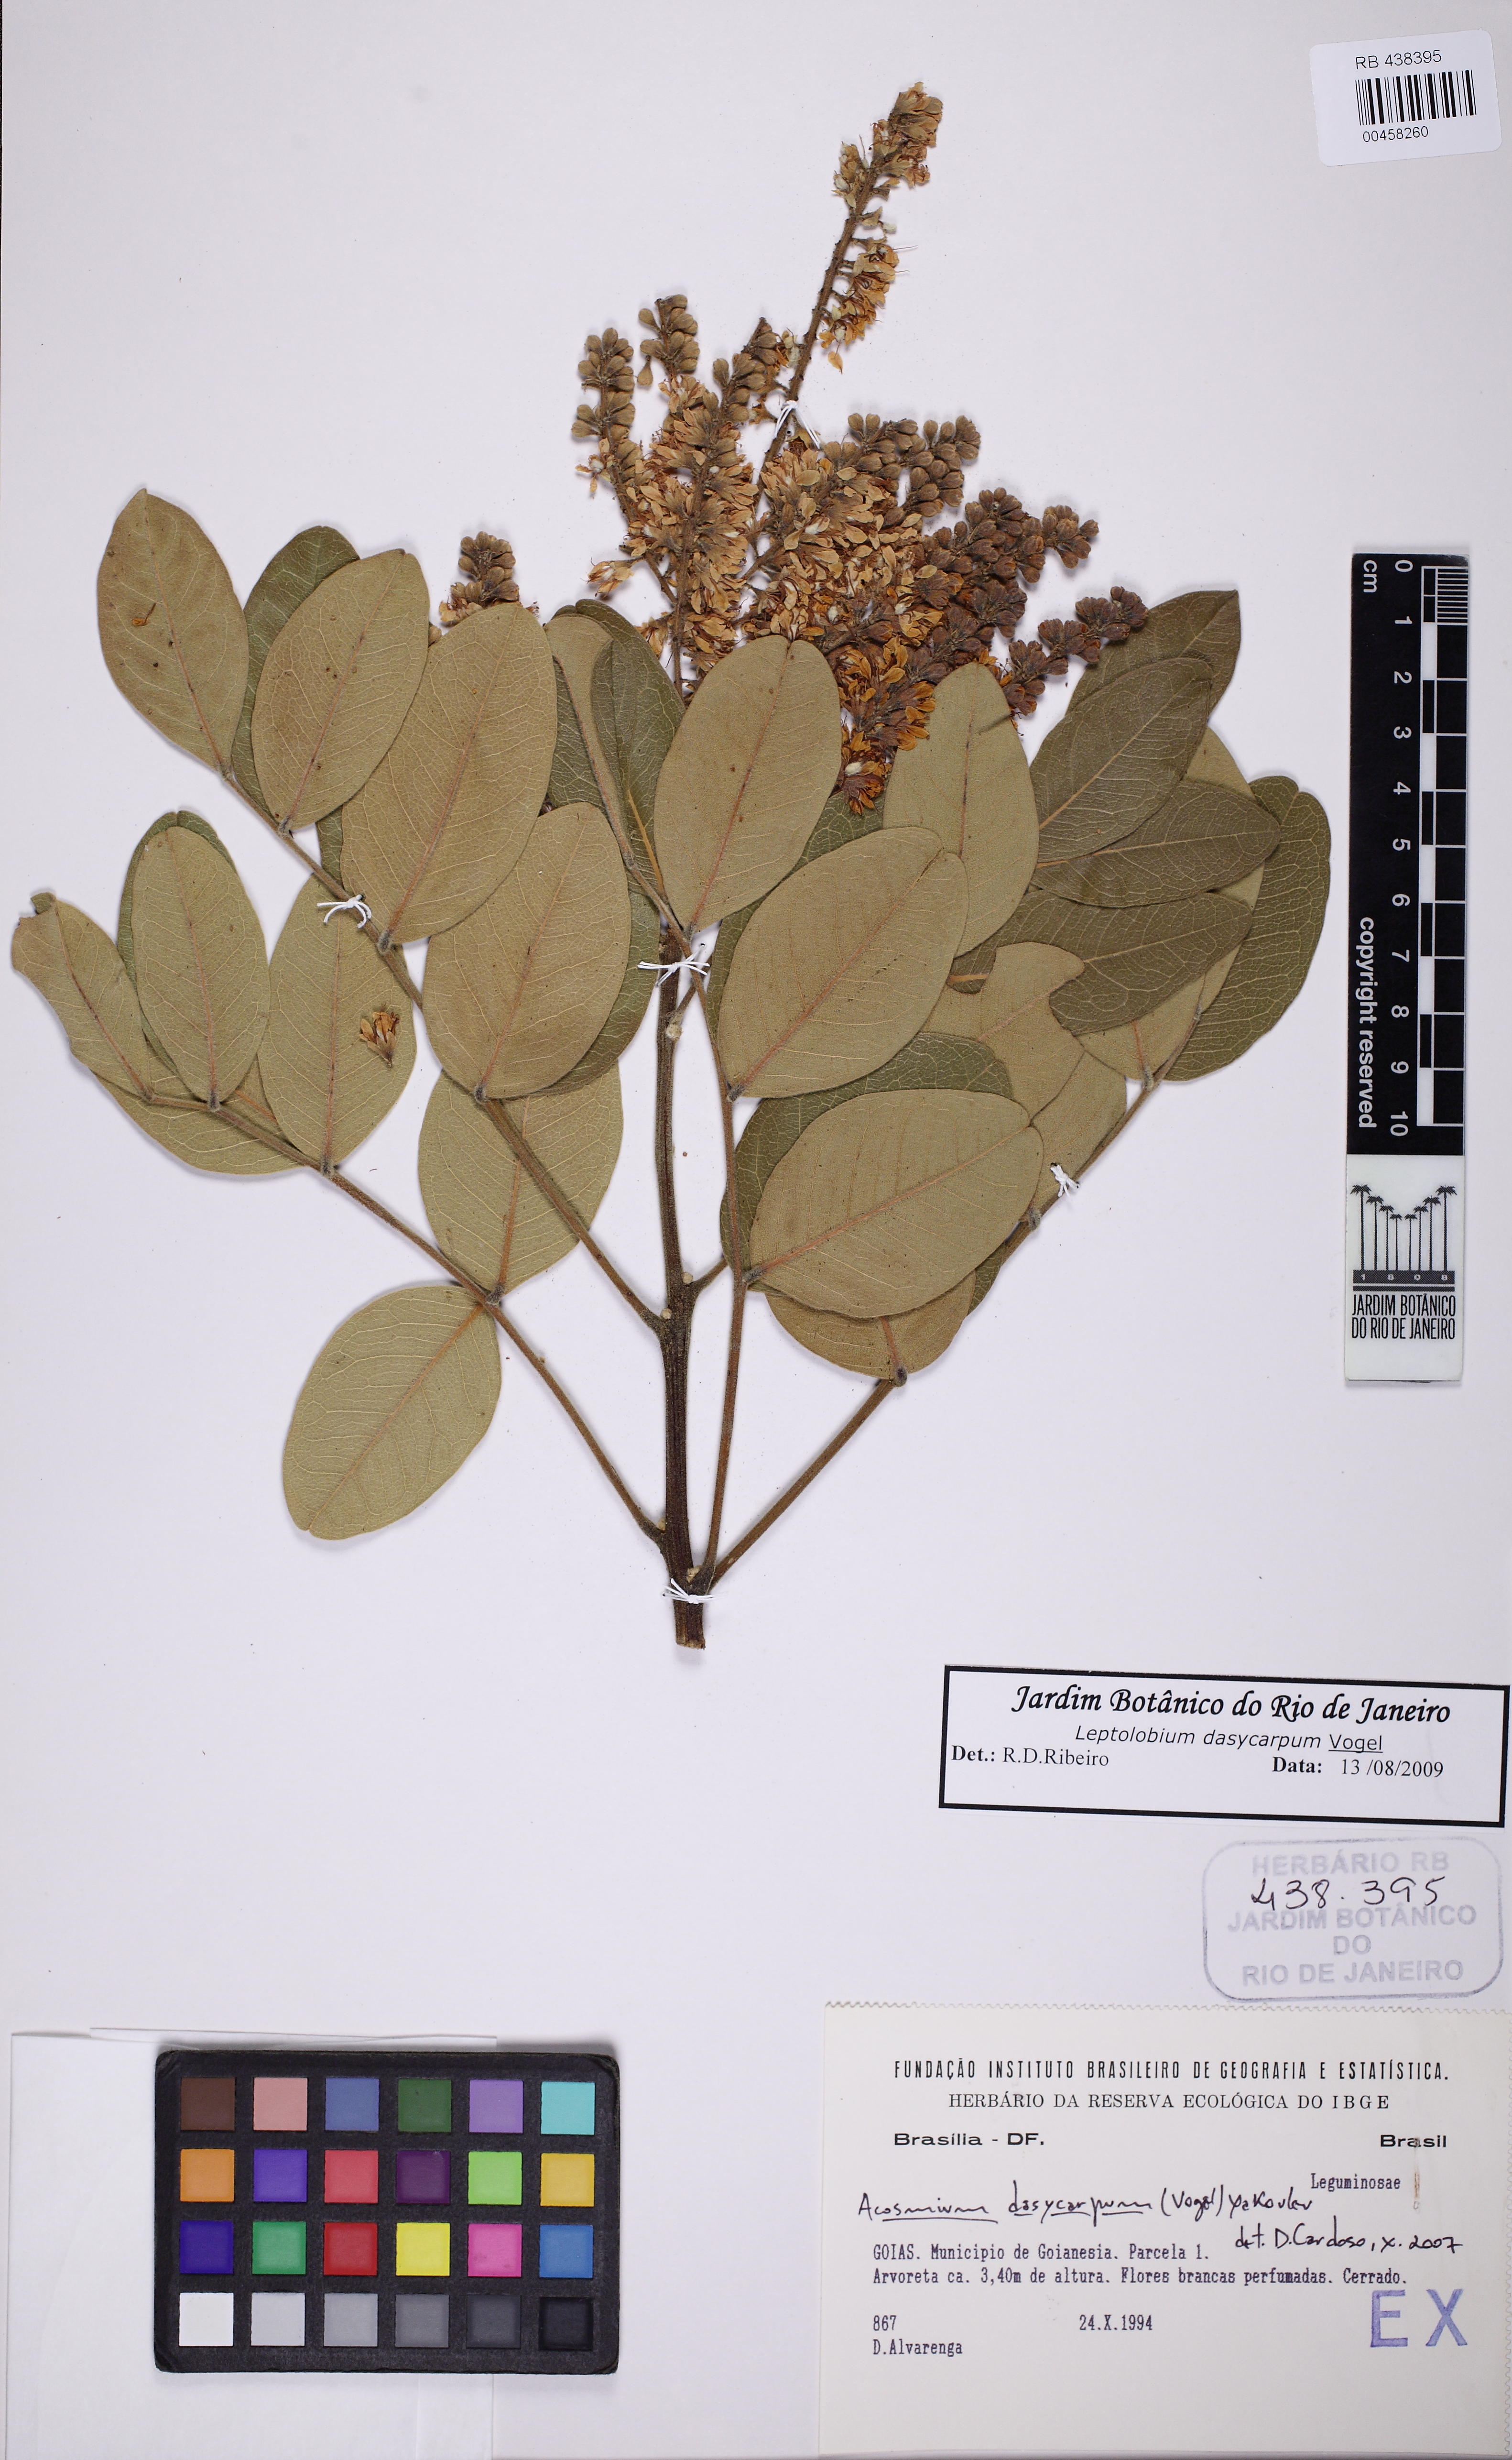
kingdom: Plantae
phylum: Tracheophyta
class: Magnoliopsida
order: Fabales
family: Fabaceae
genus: Leptolobium
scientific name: Leptolobium dasycarpum
